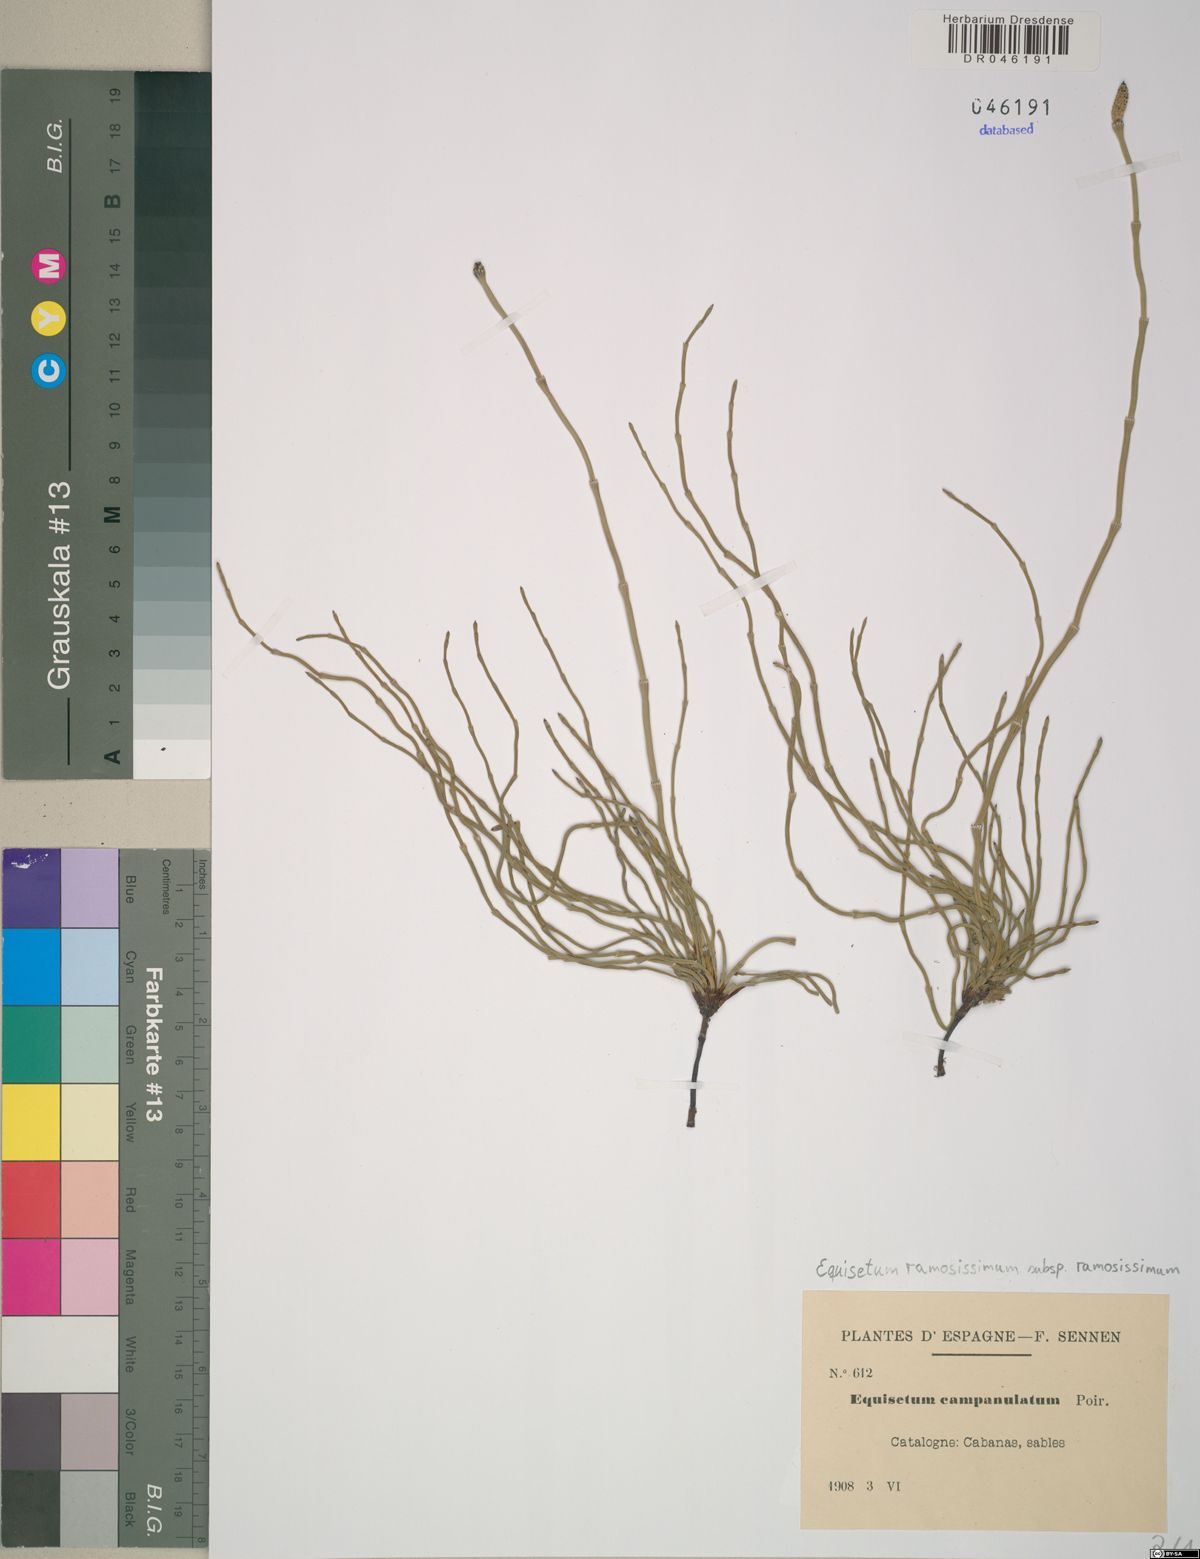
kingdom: Plantae
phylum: Tracheophyta
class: Polypodiopsida
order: Equisetales
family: Equisetaceae
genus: Equisetum
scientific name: Equisetum ramosissimum
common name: Branched horsetail
